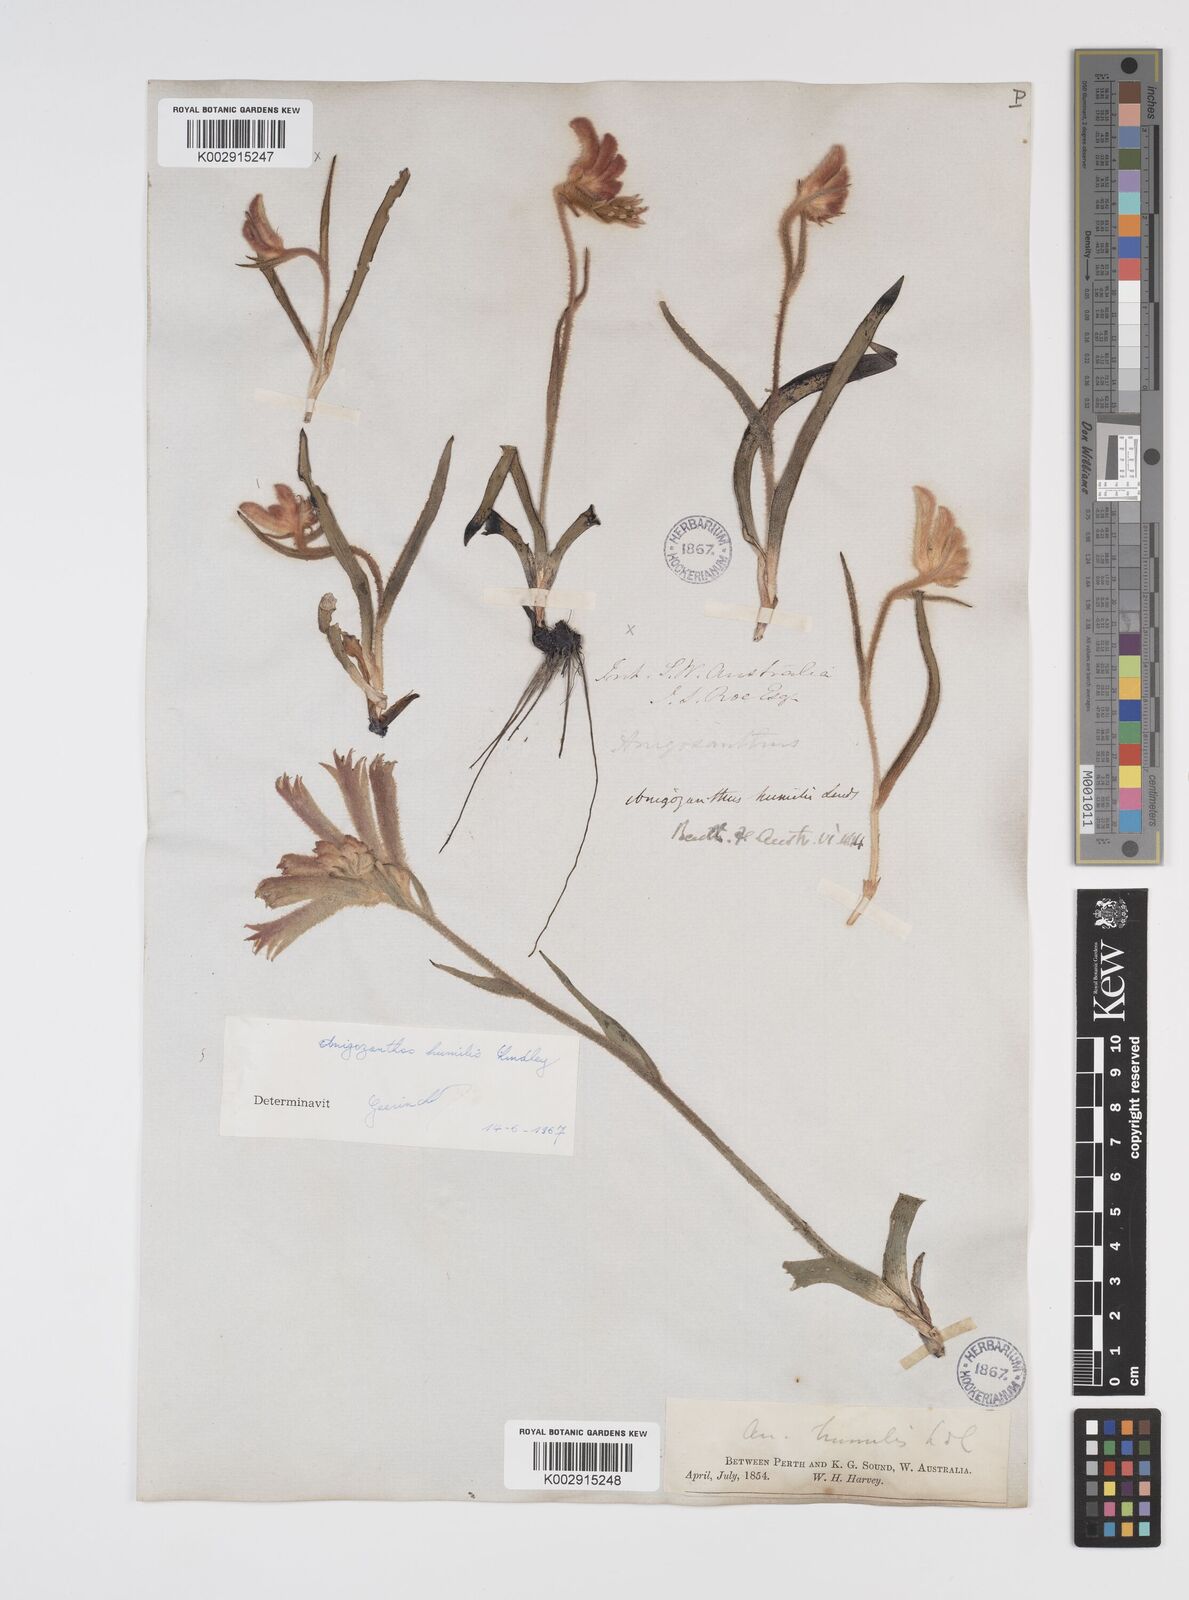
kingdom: Plantae
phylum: Tracheophyta
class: Liliopsida
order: Commelinales
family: Haemodoraceae
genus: Anigozanthos
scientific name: Anigozanthos humilis
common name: Cat's-paw
